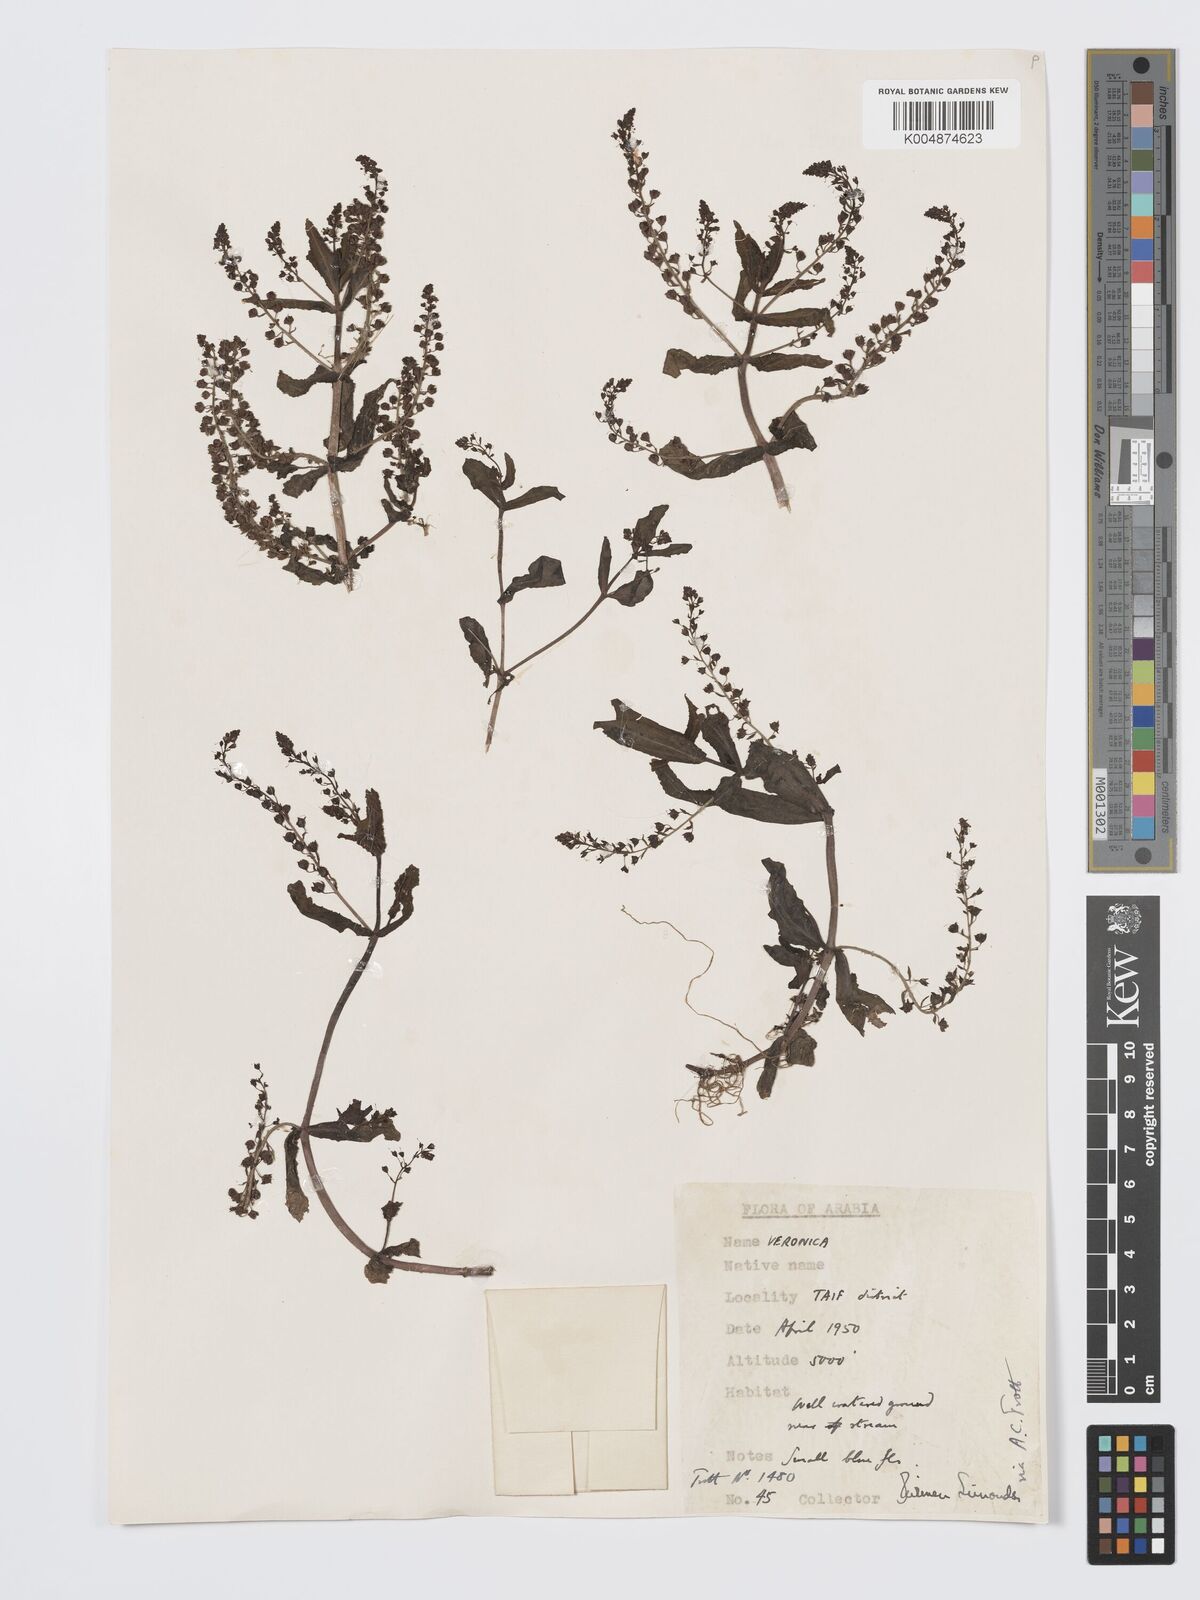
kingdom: Plantae
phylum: Tracheophyta
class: Magnoliopsida
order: Lamiales
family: Plantaginaceae
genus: Veronica
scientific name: Veronica
